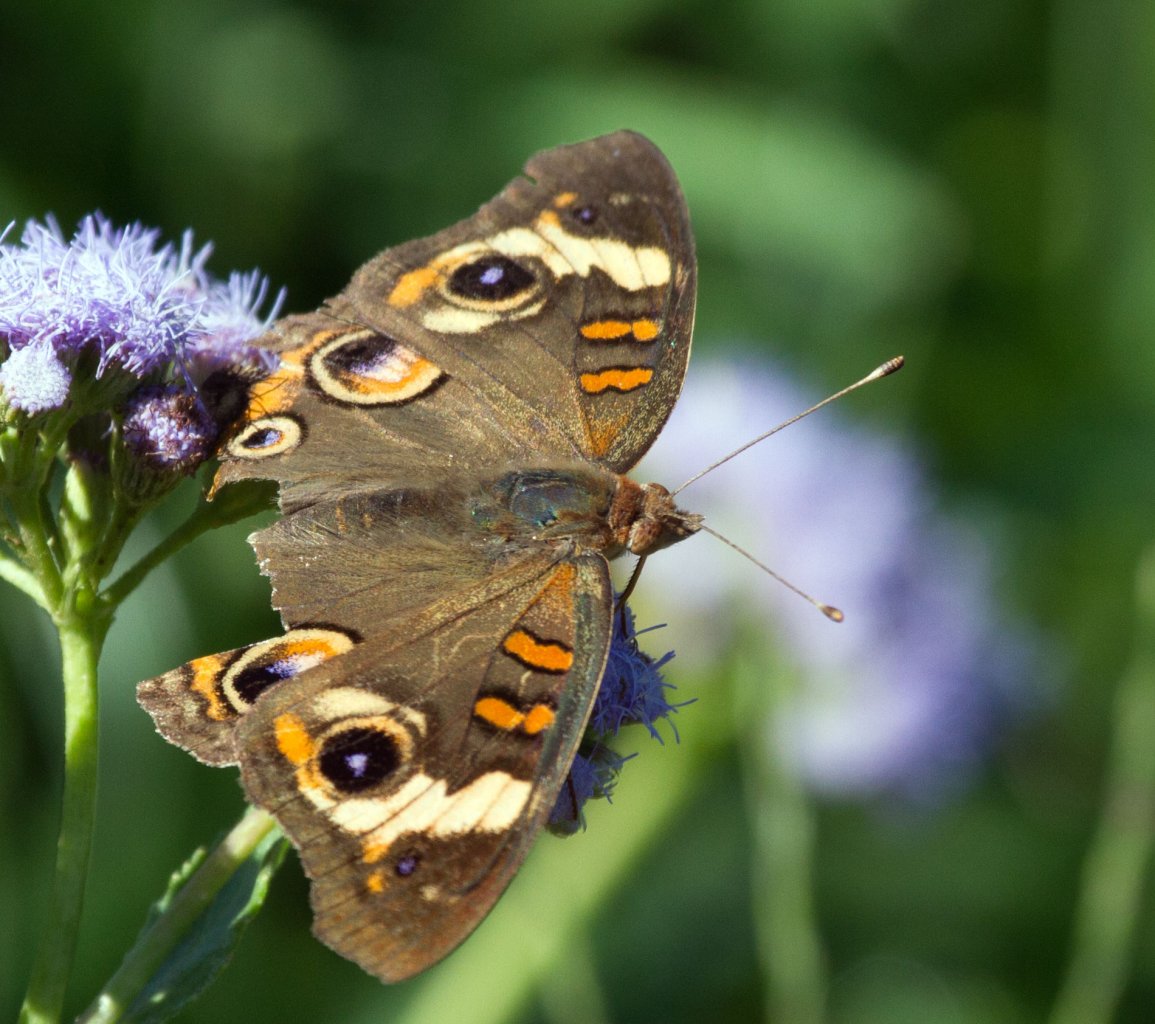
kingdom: Animalia
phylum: Arthropoda
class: Insecta
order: Lepidoptera
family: Nymphalidae
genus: Junonia
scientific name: Junonia coenia
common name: Common Buckeye
